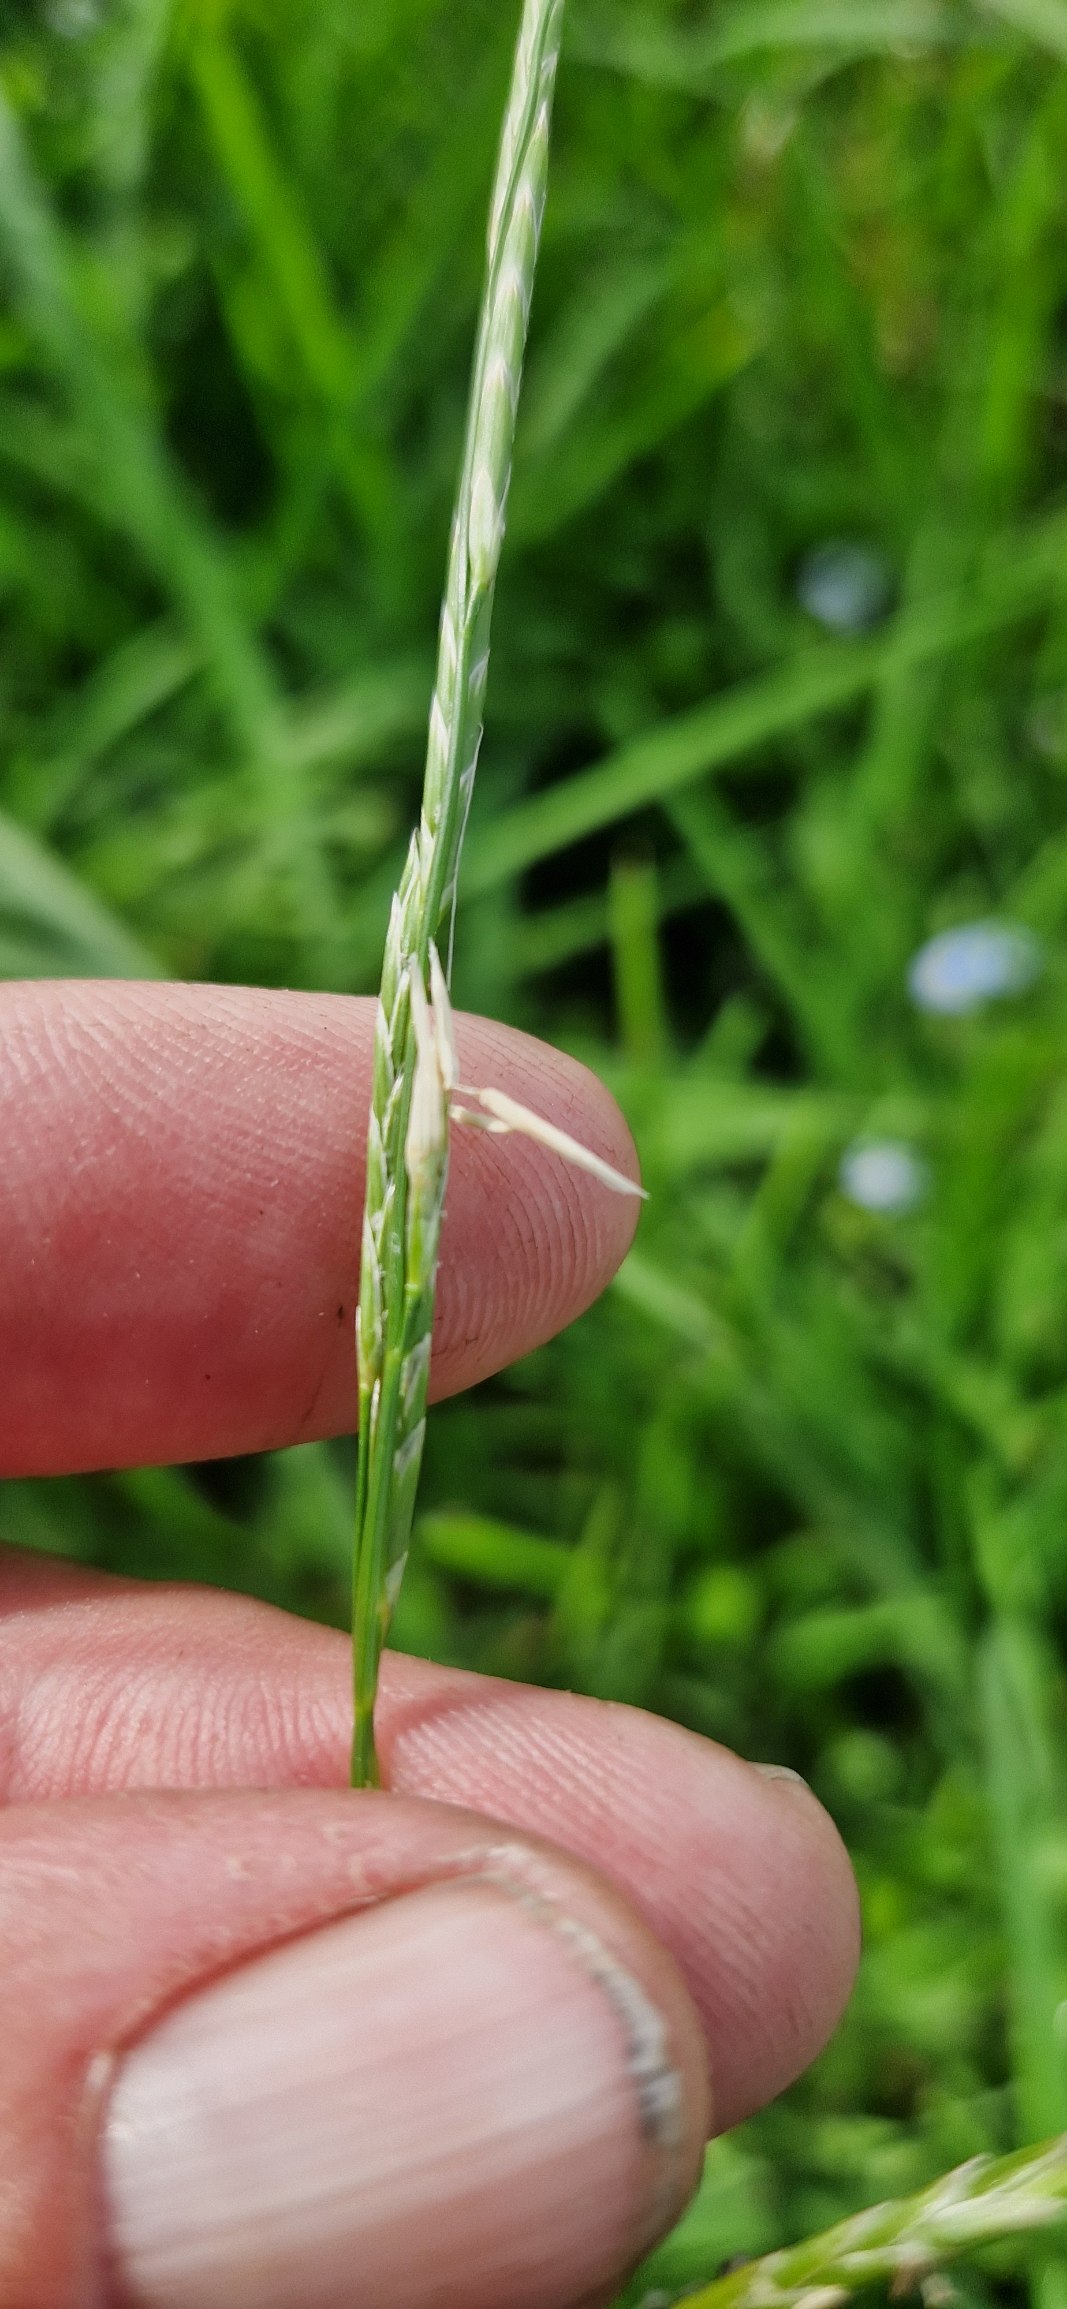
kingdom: Plantae
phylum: Tracheophyta
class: Liliopsida
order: Poales
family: Poaceae
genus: Glyceria
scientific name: Glyceria fluitans
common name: Manna-sødgræs
